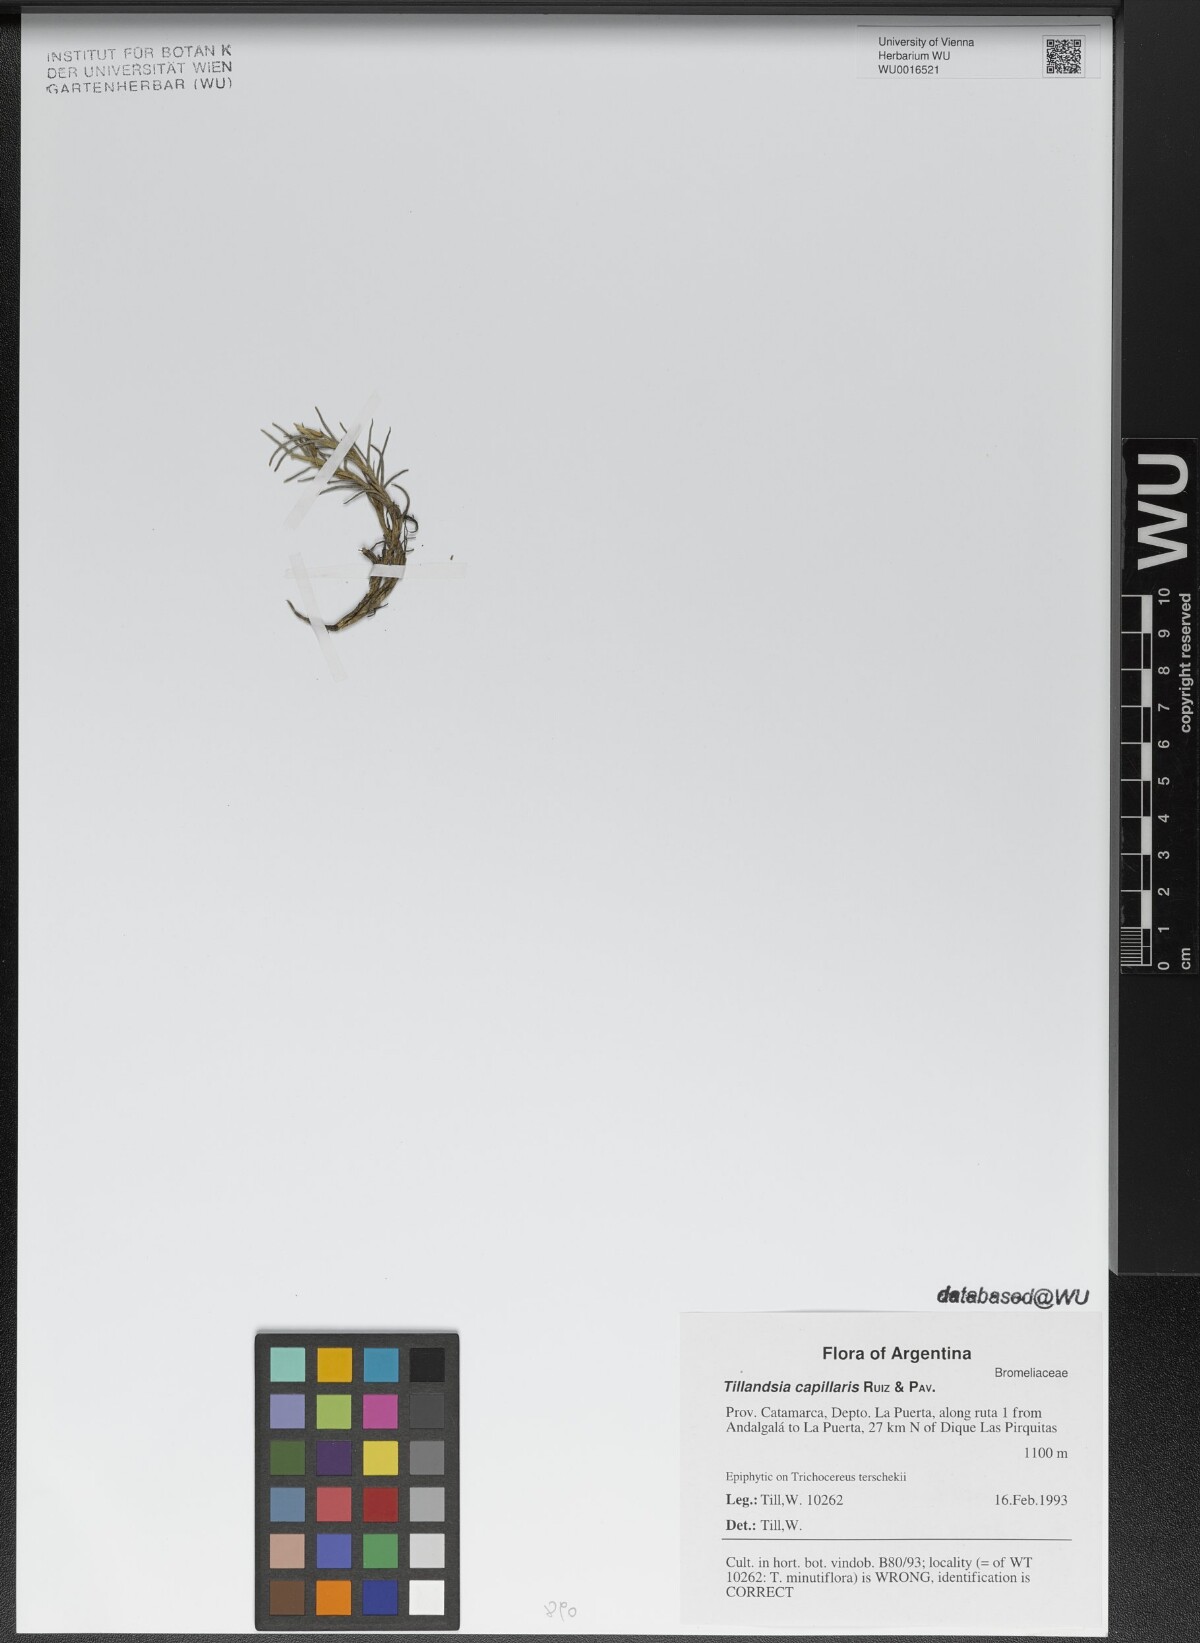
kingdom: Plantae
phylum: Tracheophyta
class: Liliopsida
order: Poales
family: Bromeliaceae
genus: Tillandsia
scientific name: Tillandsia capillaris
